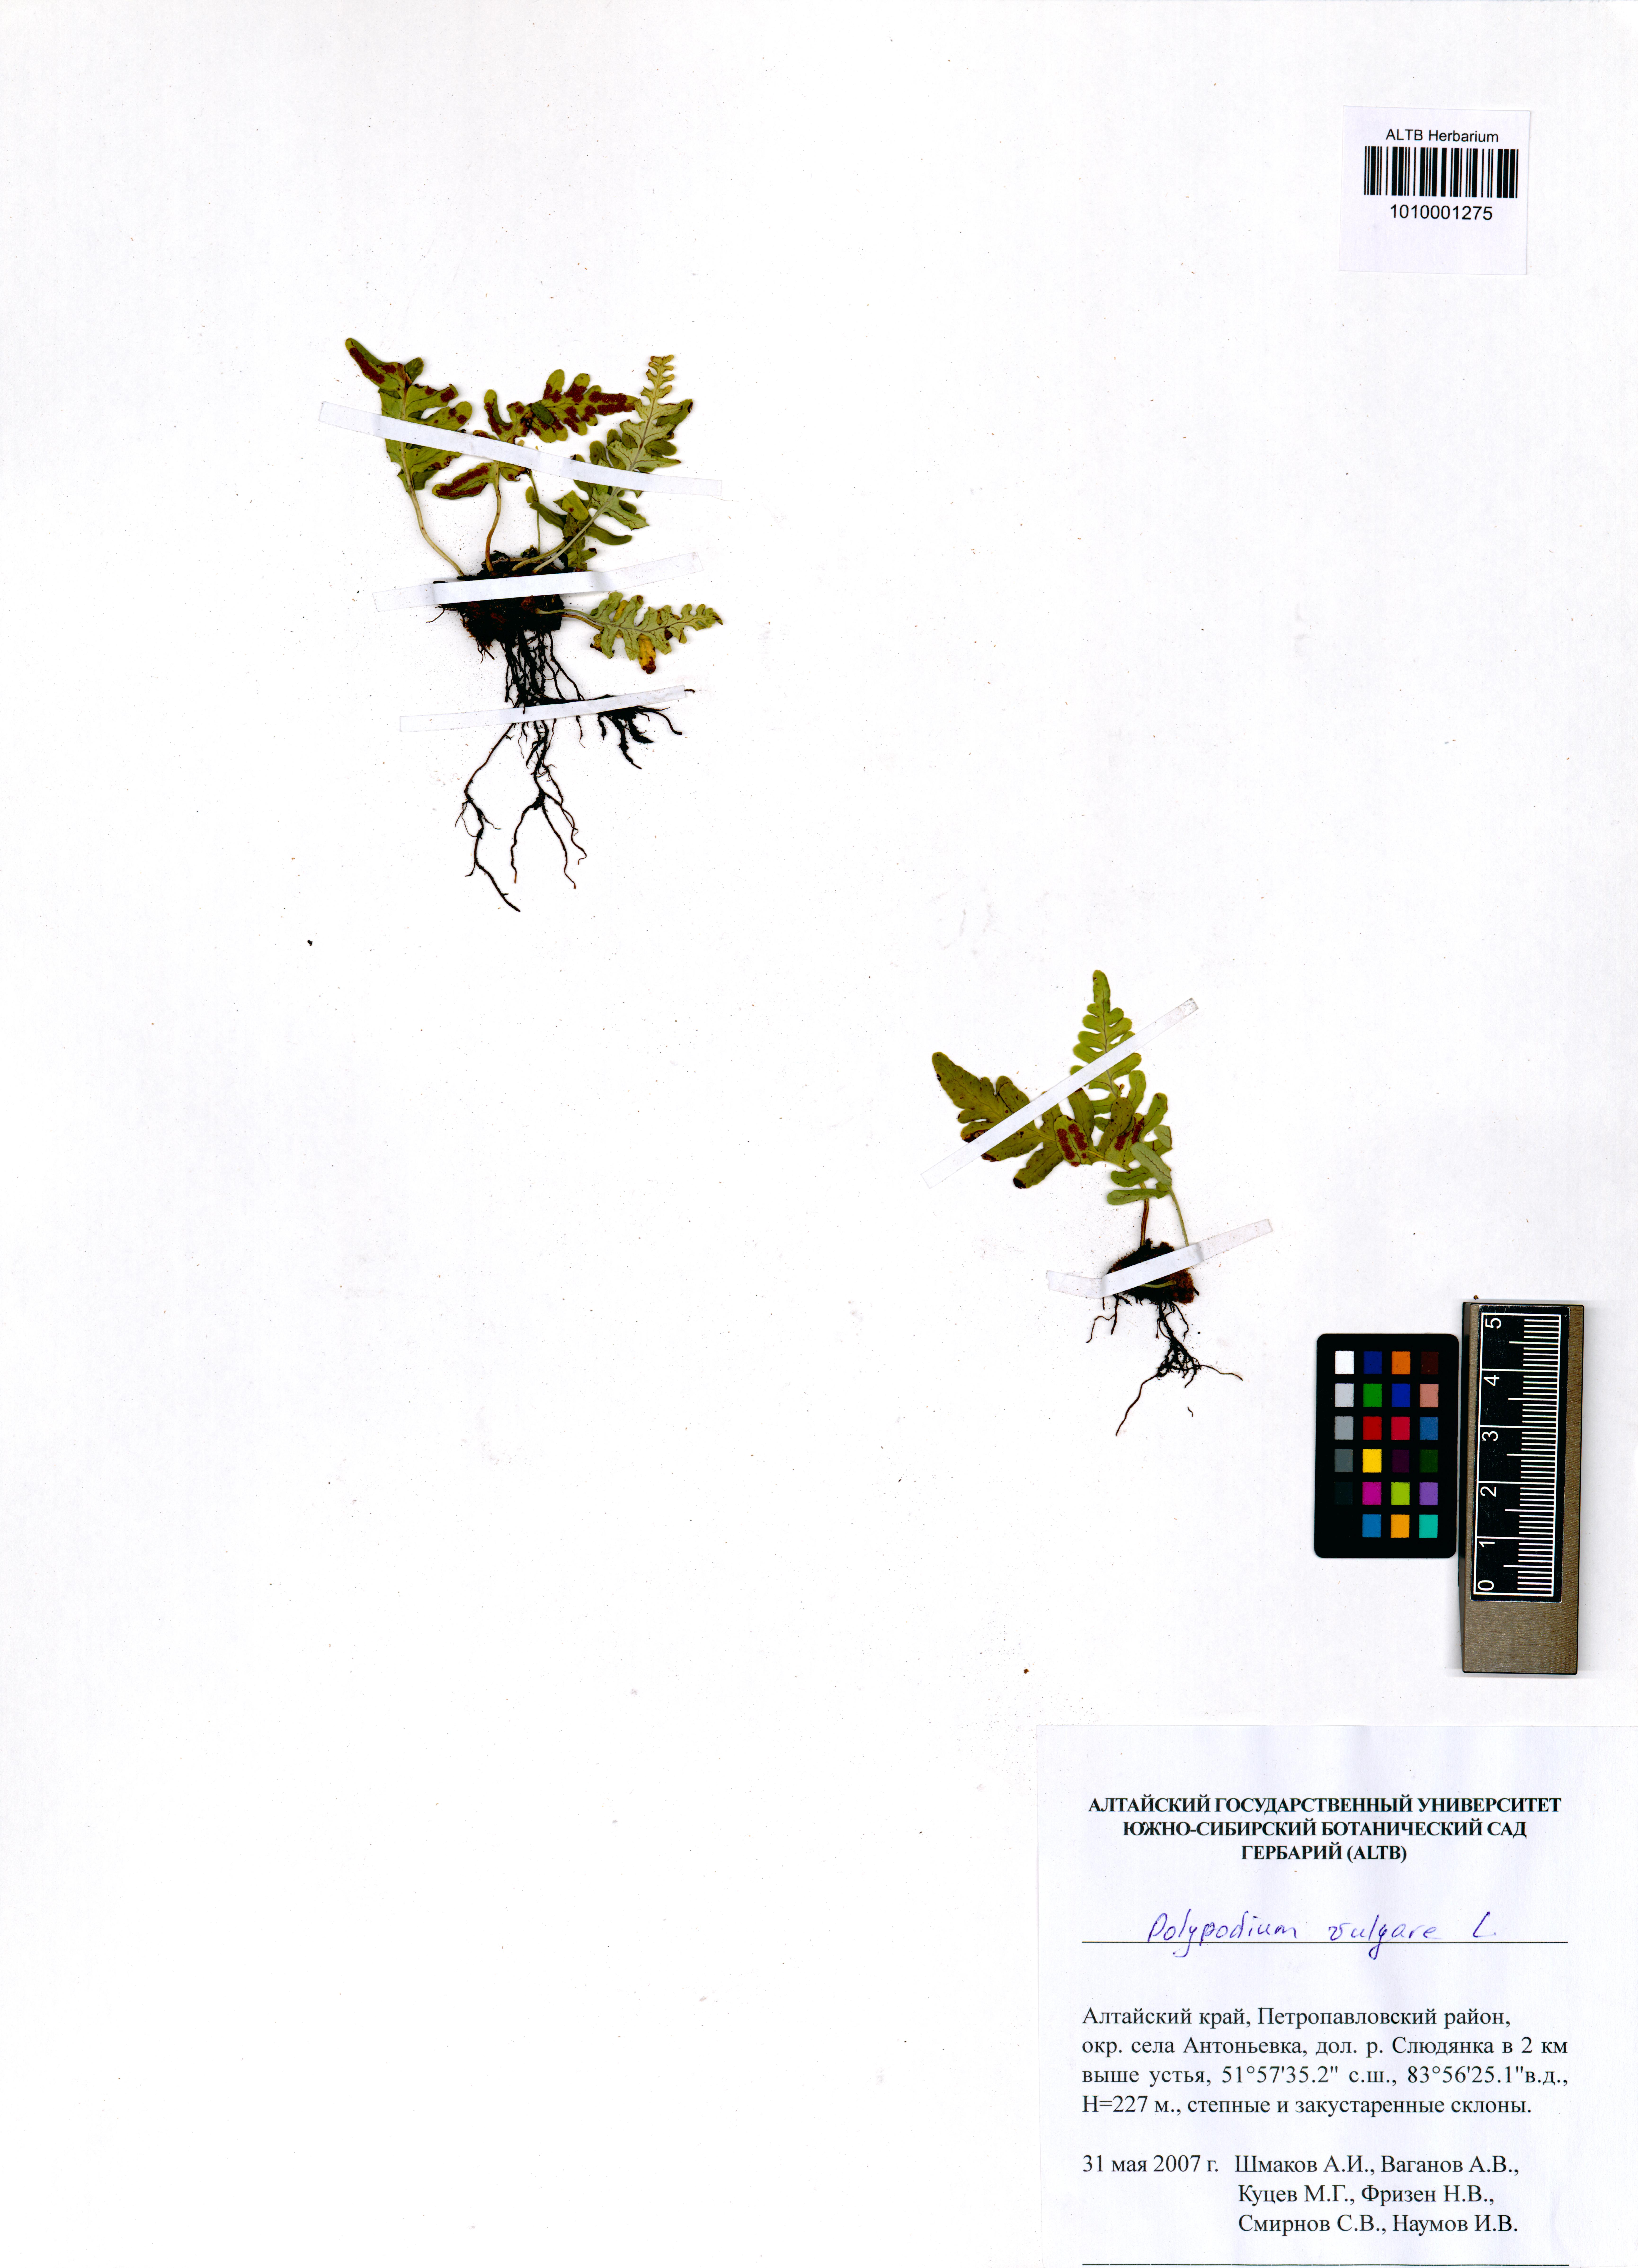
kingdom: Plantae
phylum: Tracheophyta
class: Polypodiopsida
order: Polypodiales
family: Polypodiaceae
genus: Polypodium
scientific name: Polypodium vulgare
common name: Common polypody
